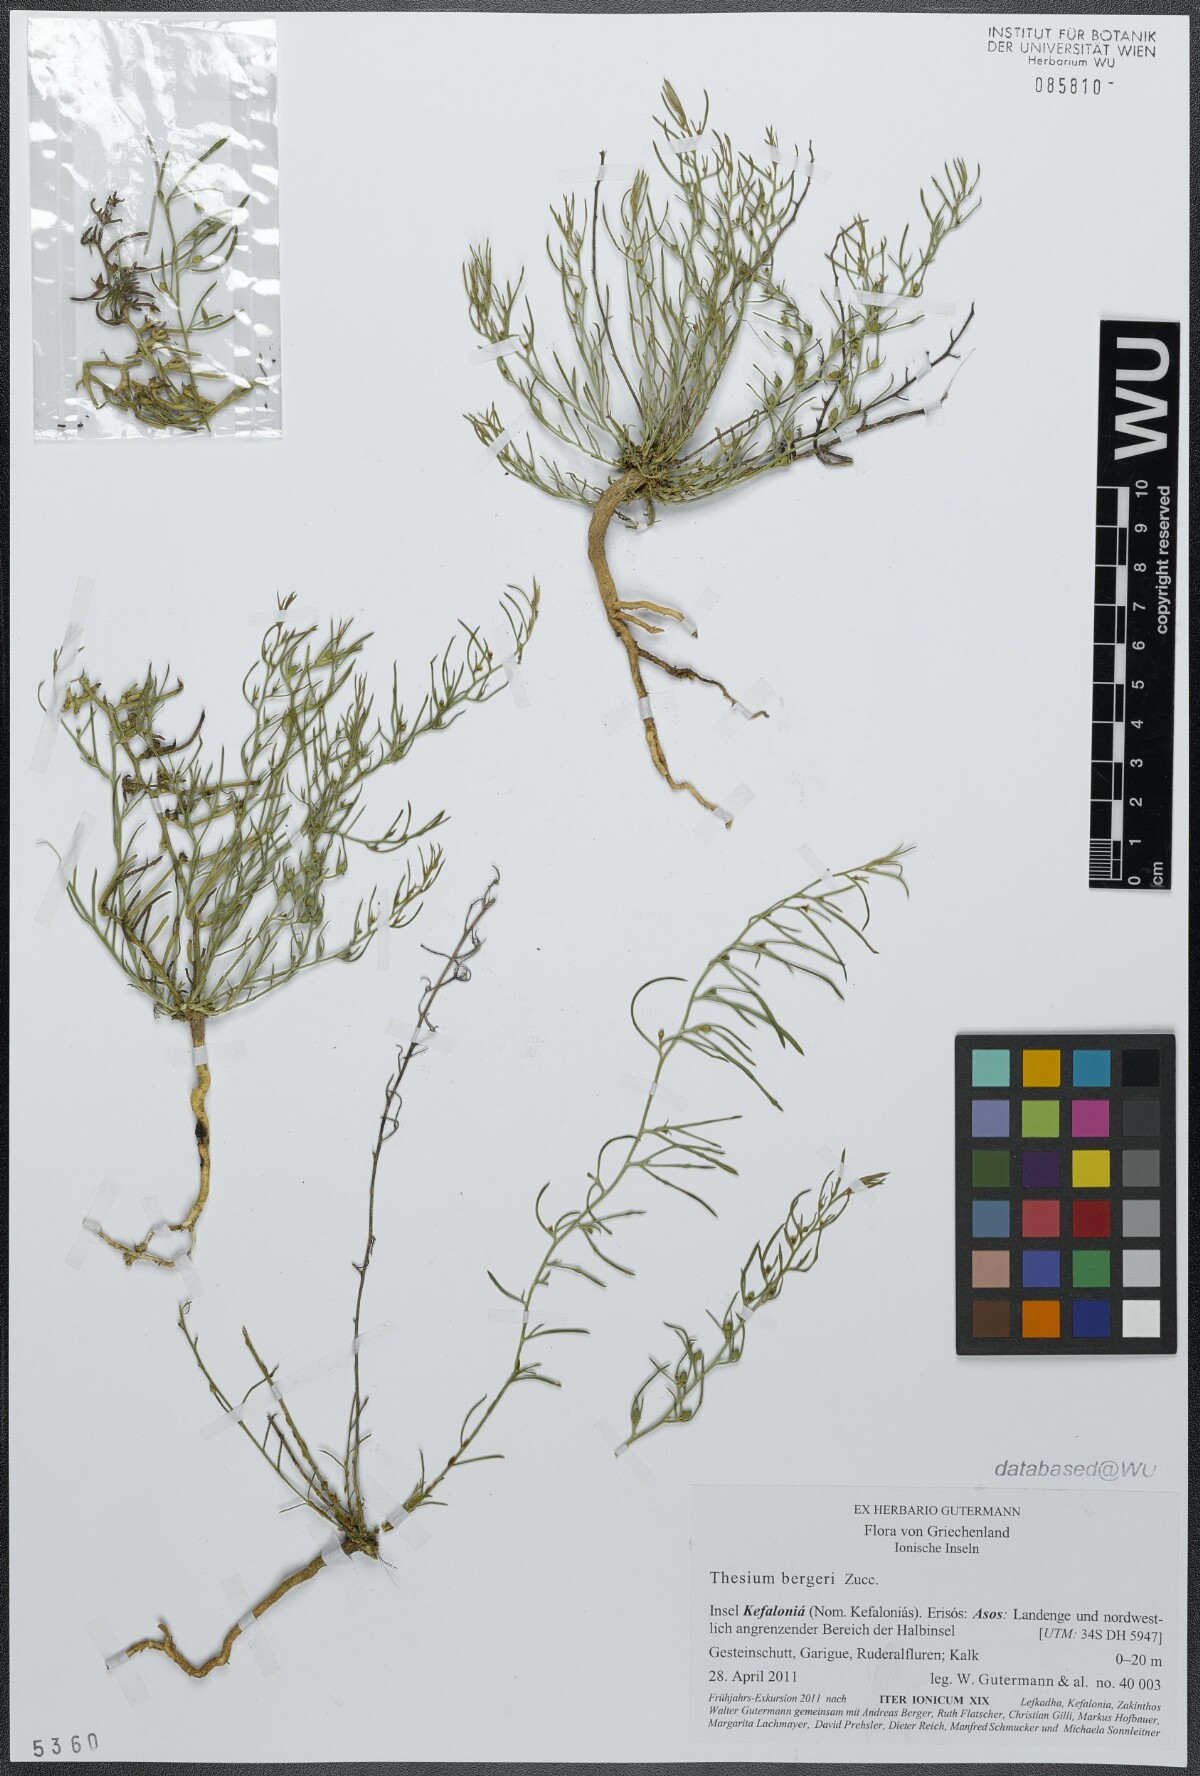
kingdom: Plantae
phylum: Tracheophyta
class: Magnoliopsida
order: Santalales
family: Thesiaceae
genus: Thesium
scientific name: Thesium bergeri
